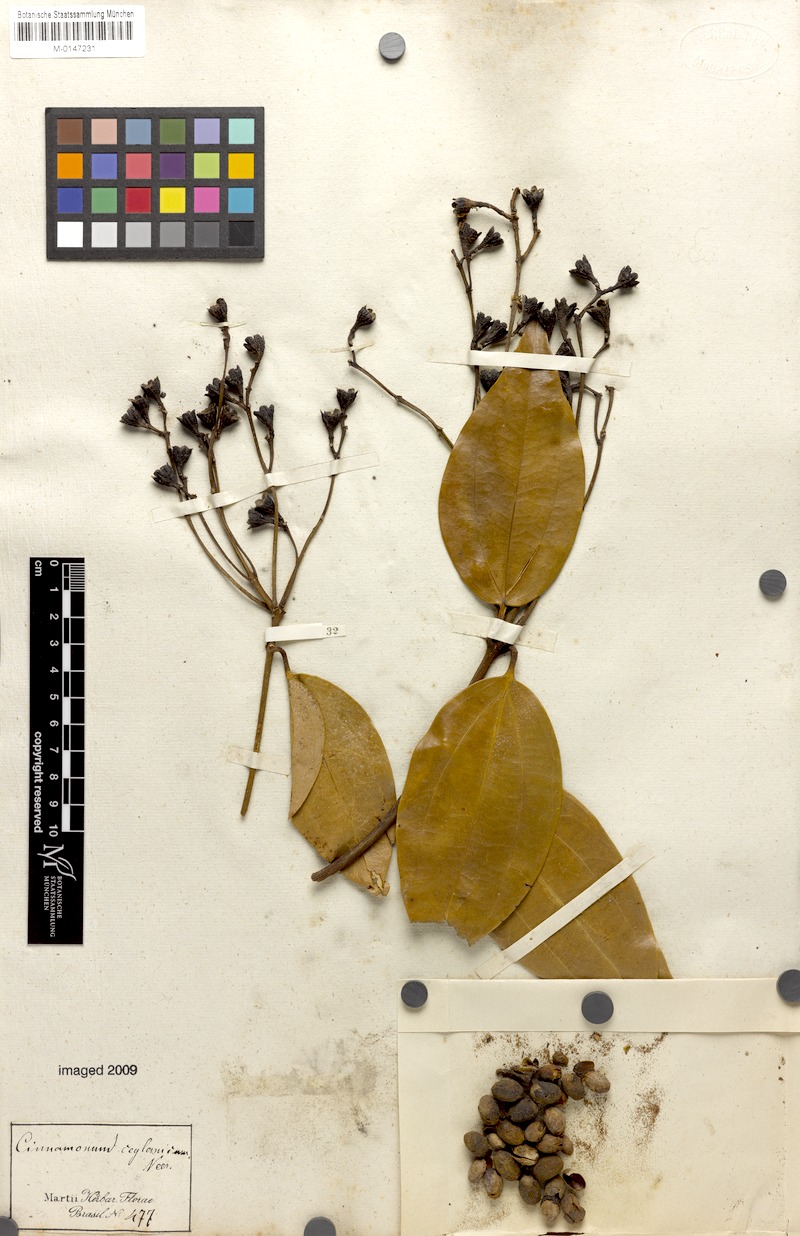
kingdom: Plantae
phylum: Tracheophyta
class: Magnoliopsida
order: Laurales
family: Lauraceae
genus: Cinnamomum
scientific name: Cinnamomum verum
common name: Cinnamon
